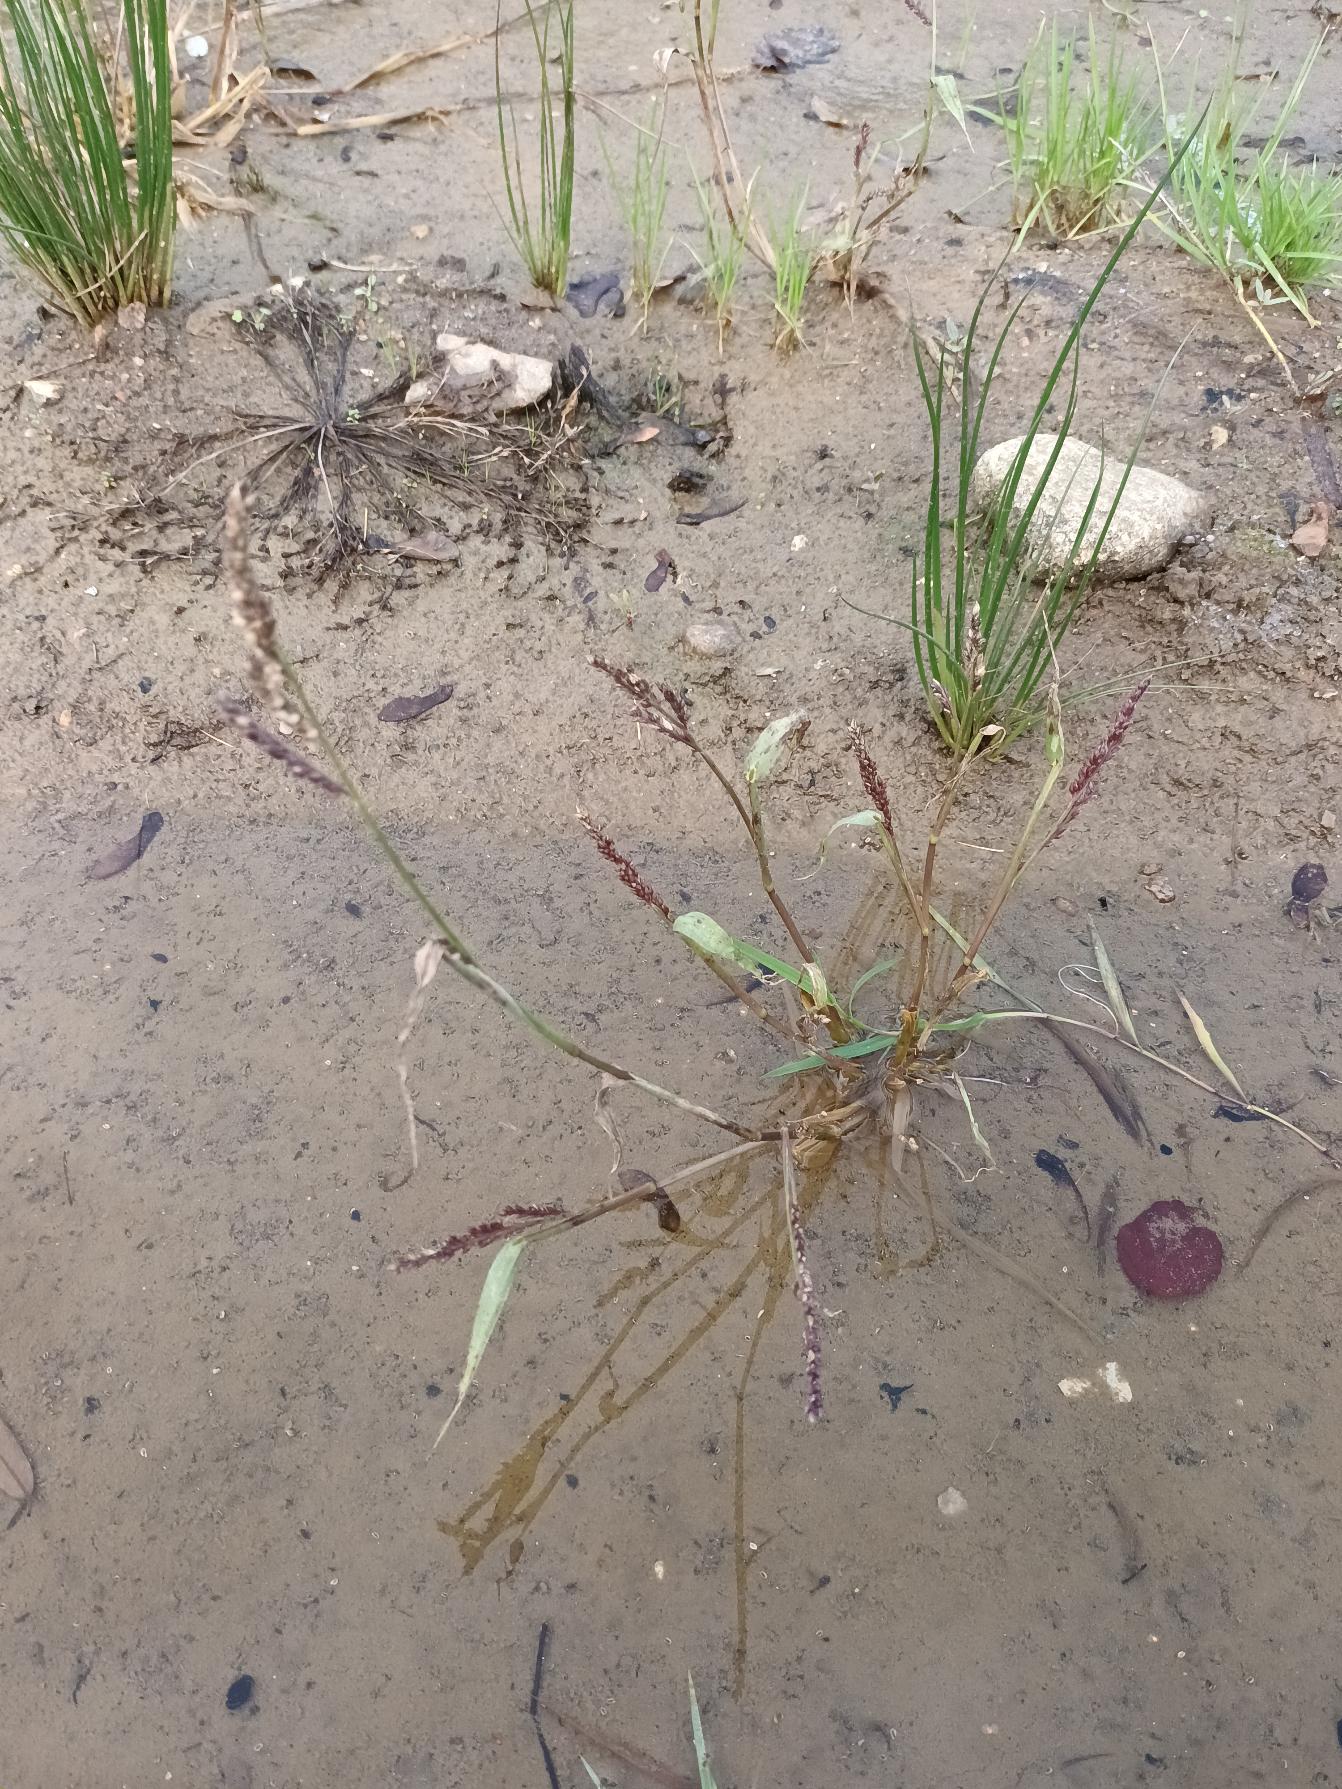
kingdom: Plantae
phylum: Tracheophyta
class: Liliopsida
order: Poales
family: Poaceae
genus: Echinochloa
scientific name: Echinochloa crus-galli
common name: Almindelig hanespore
